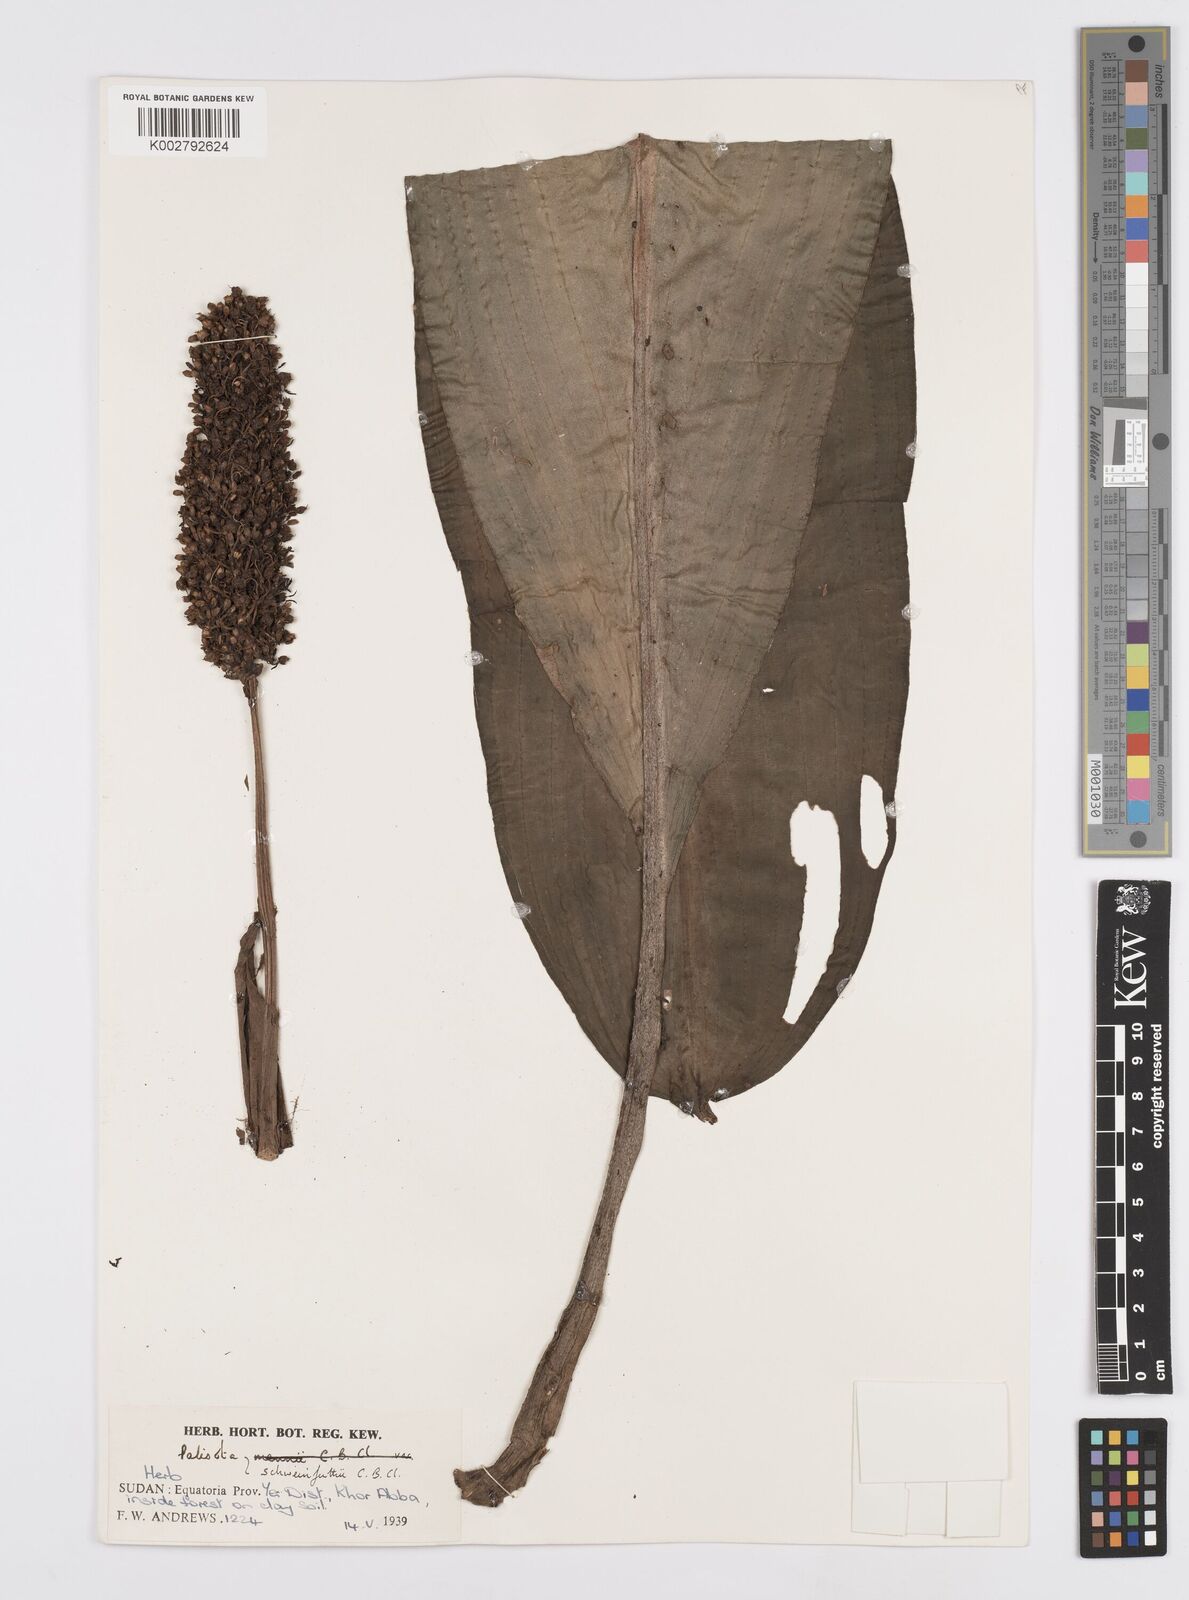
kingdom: Plantae
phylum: Tracheophyta
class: Liliopsida
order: Commelinales
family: Commelinaceae
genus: Palisota
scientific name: Palisota schweinfurthii
